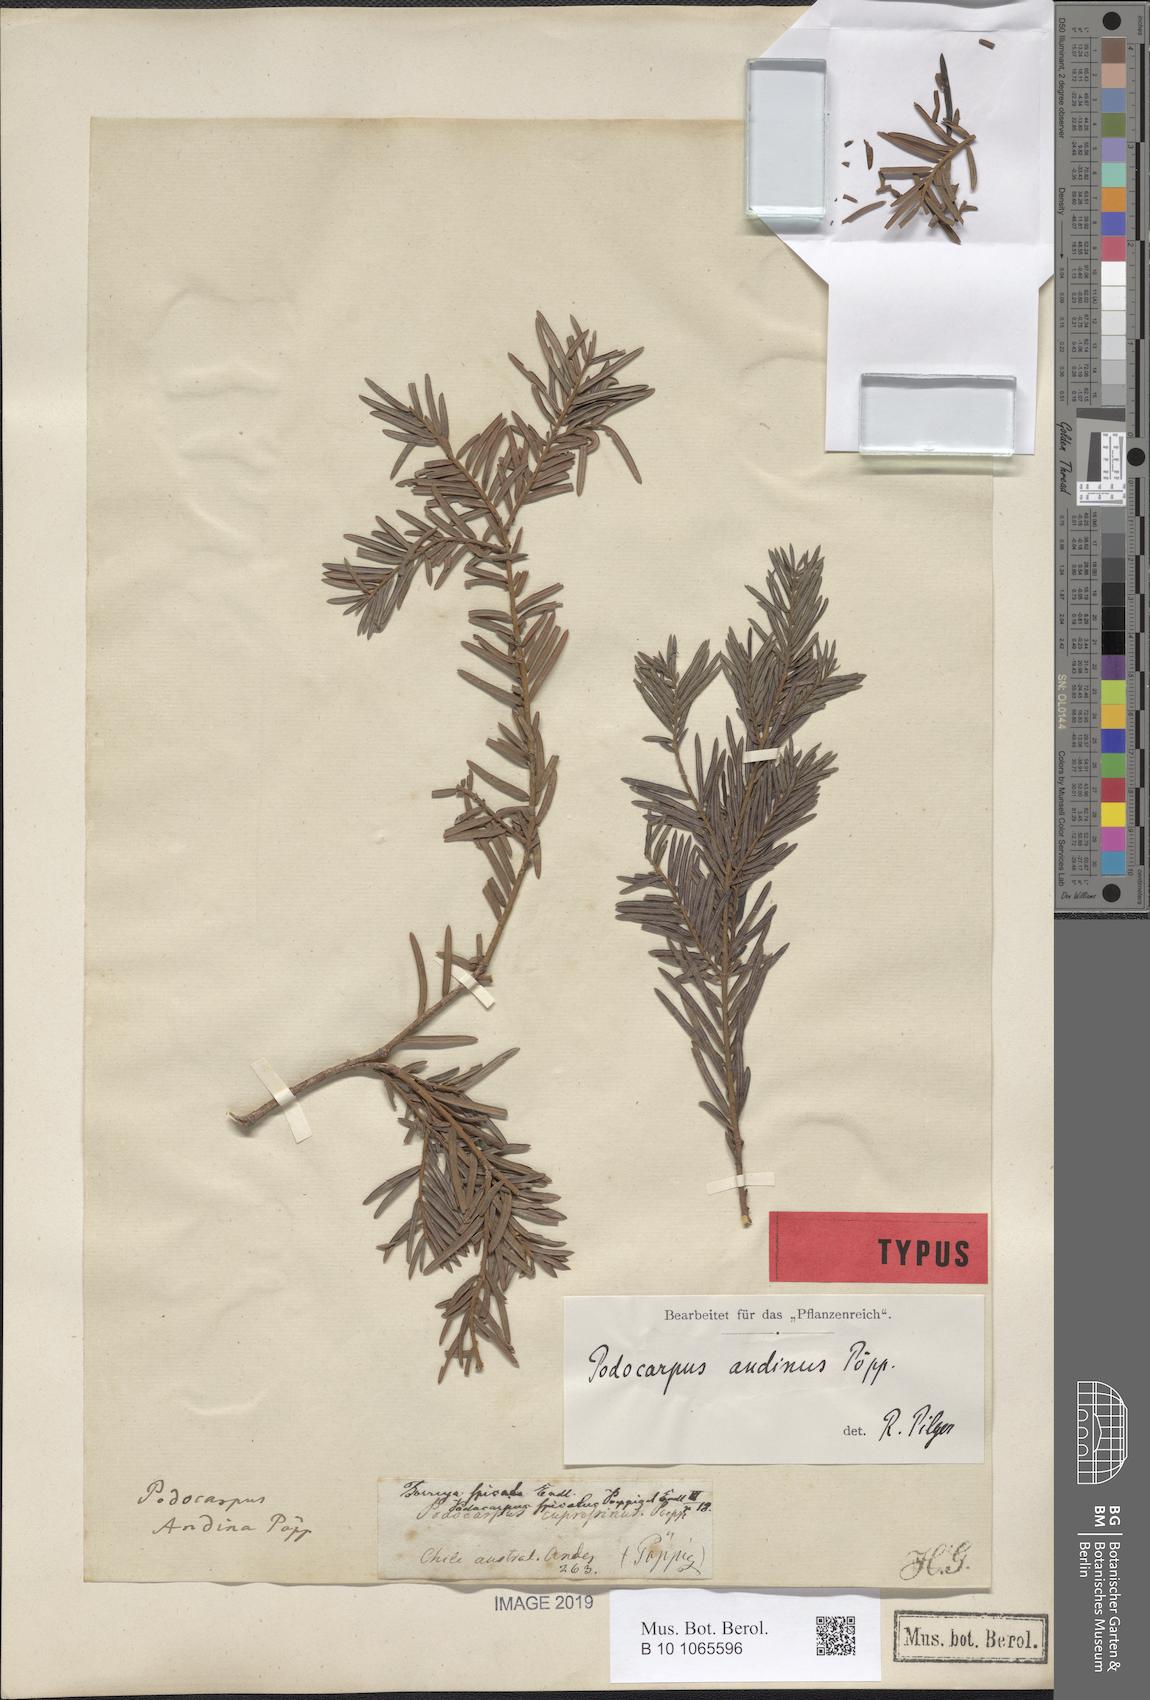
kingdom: Plantae
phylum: Tracheophyta
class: Pinopsida
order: Pinales
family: Podocarpaceae
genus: Prumnopitys
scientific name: Prumnopitys andina
